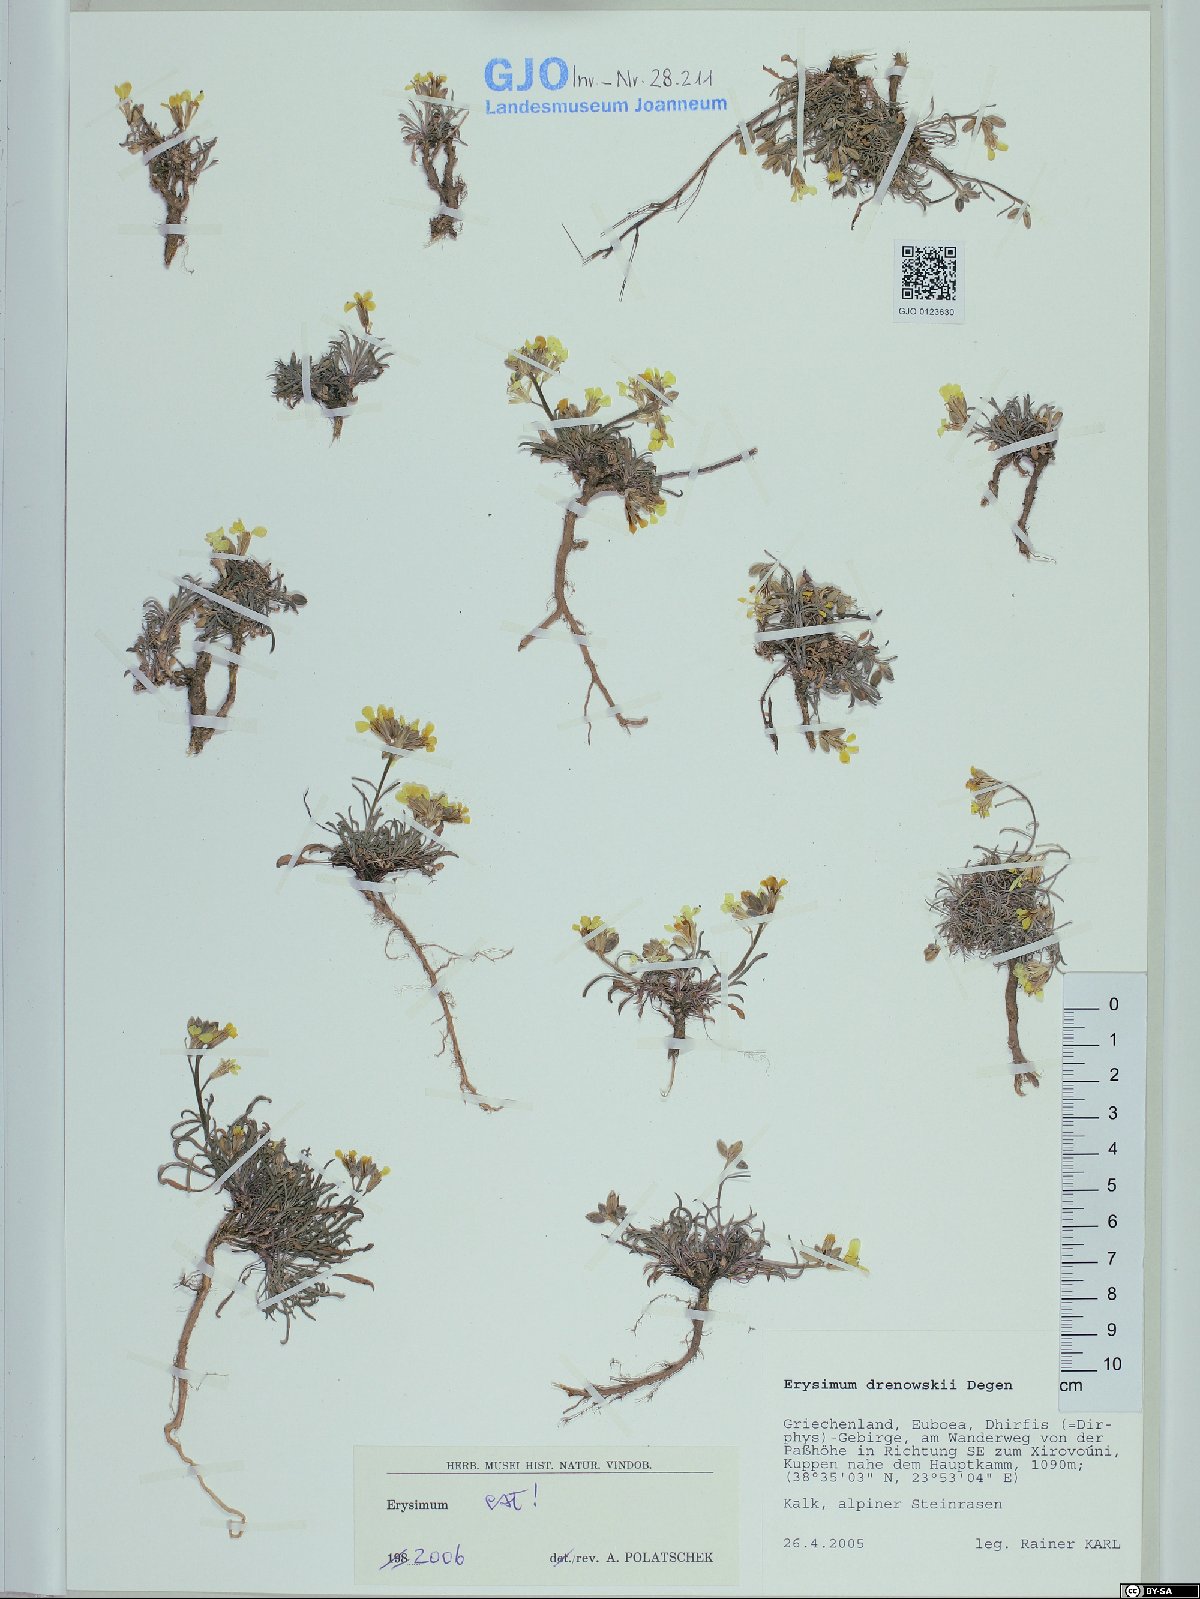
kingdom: Plantae
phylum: Tracheophyta
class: Magnoliopsida
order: Brassicales
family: Brassicaceae
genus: Erysimum
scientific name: Erysimum drenowskii
